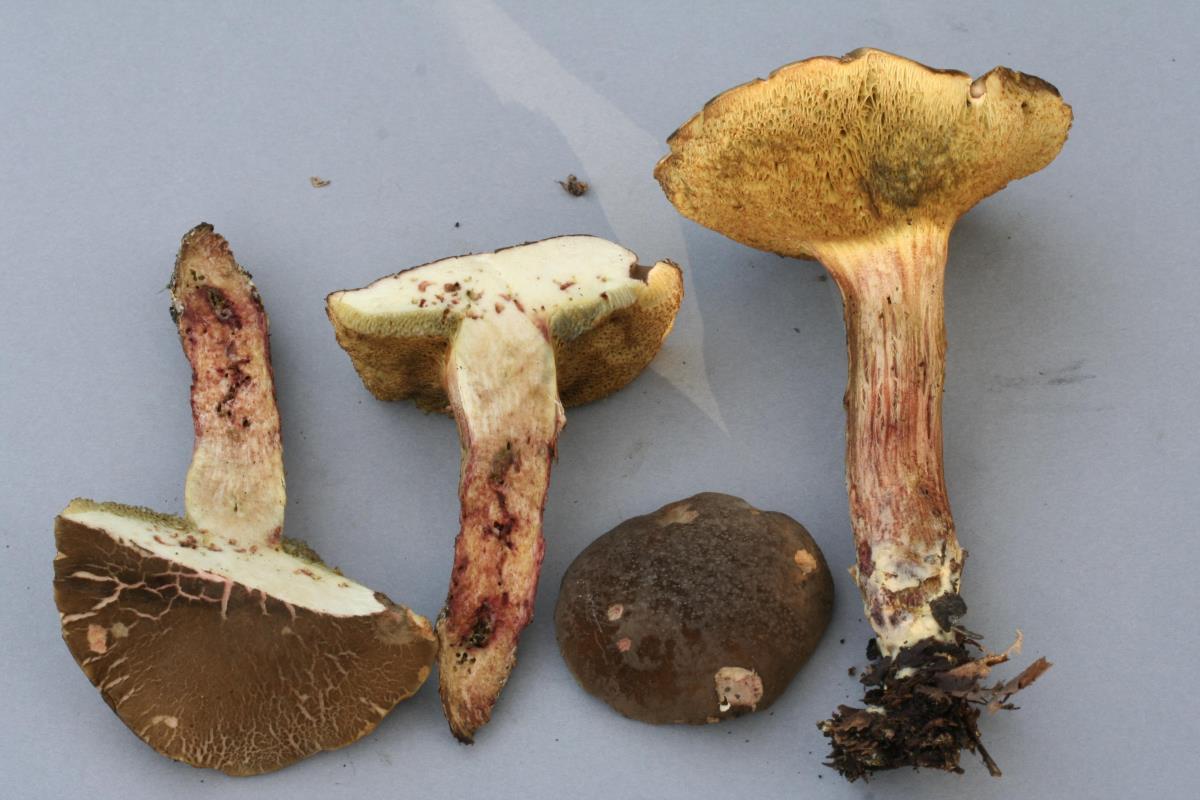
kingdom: Fungi
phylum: Basidiomycota
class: Agaricomycetes
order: Boletales
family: Boletaceae
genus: Xerocomellus
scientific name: Xerocomellus cisalpinus
